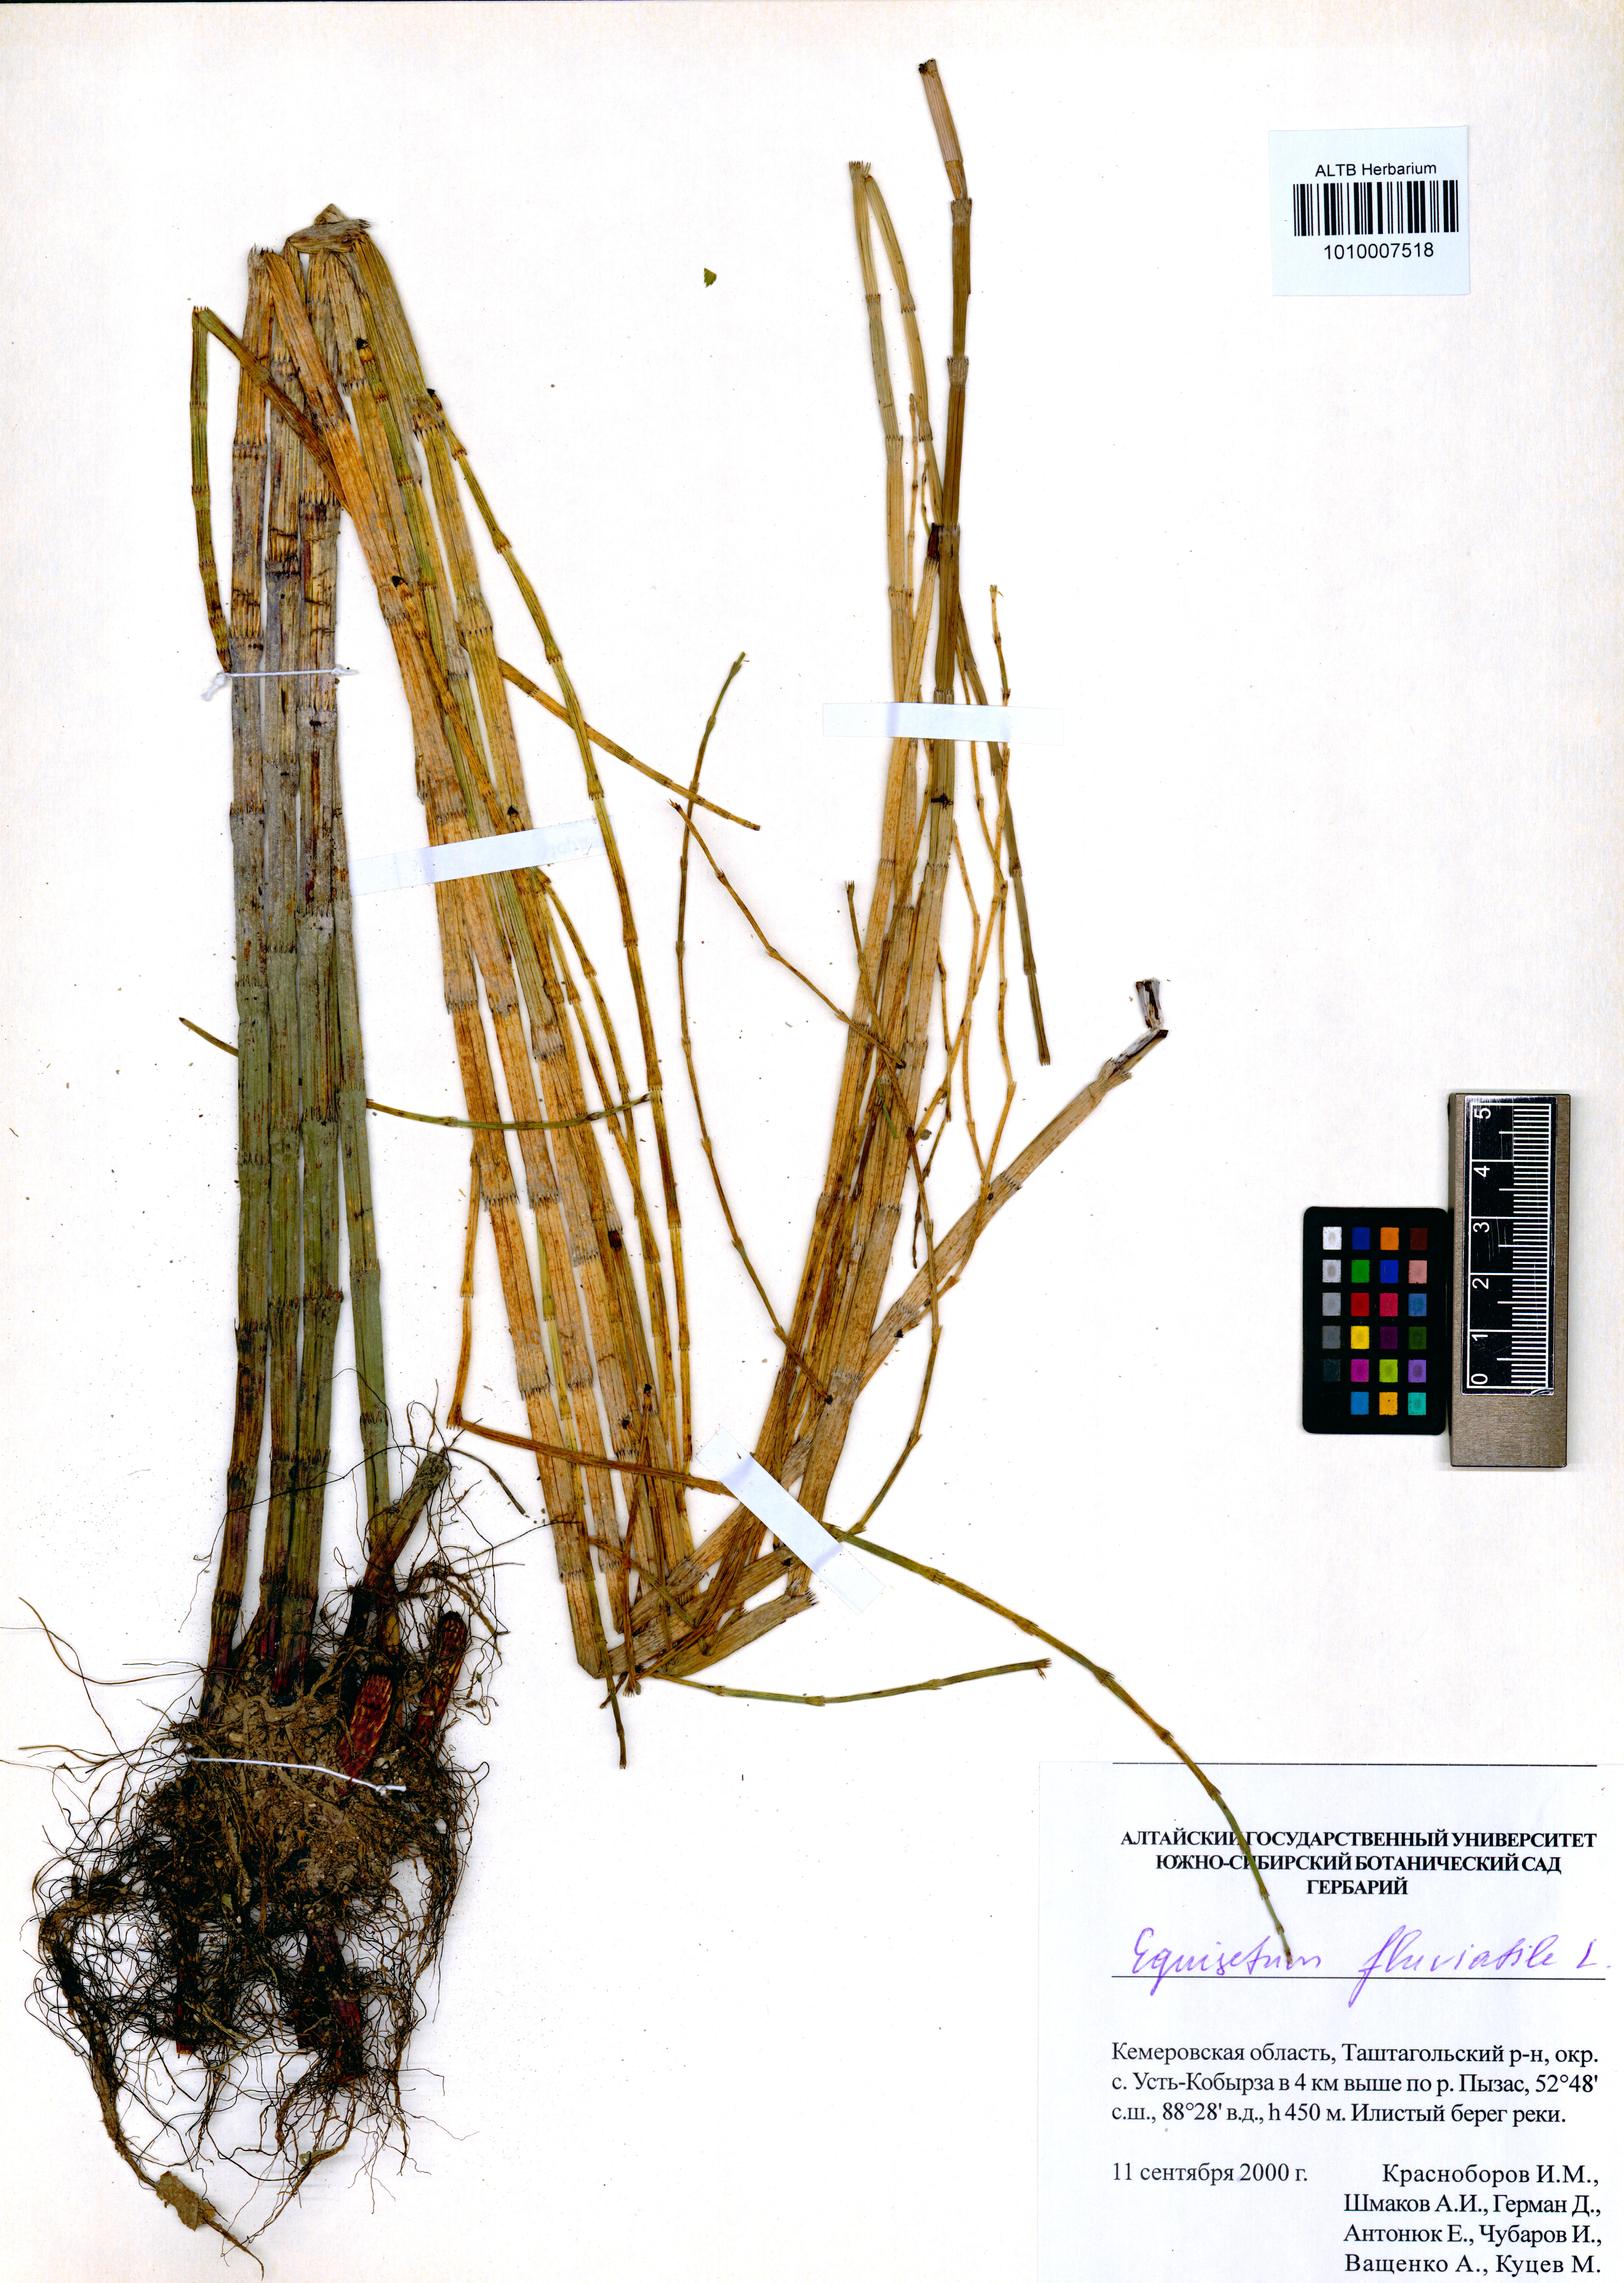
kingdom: Plantae
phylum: Tracheophyta
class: Polypodiopsida
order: Equisetales
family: Equisetaceae
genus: Equisetum
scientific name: Equisetum fluviatile
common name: Water horsetail
